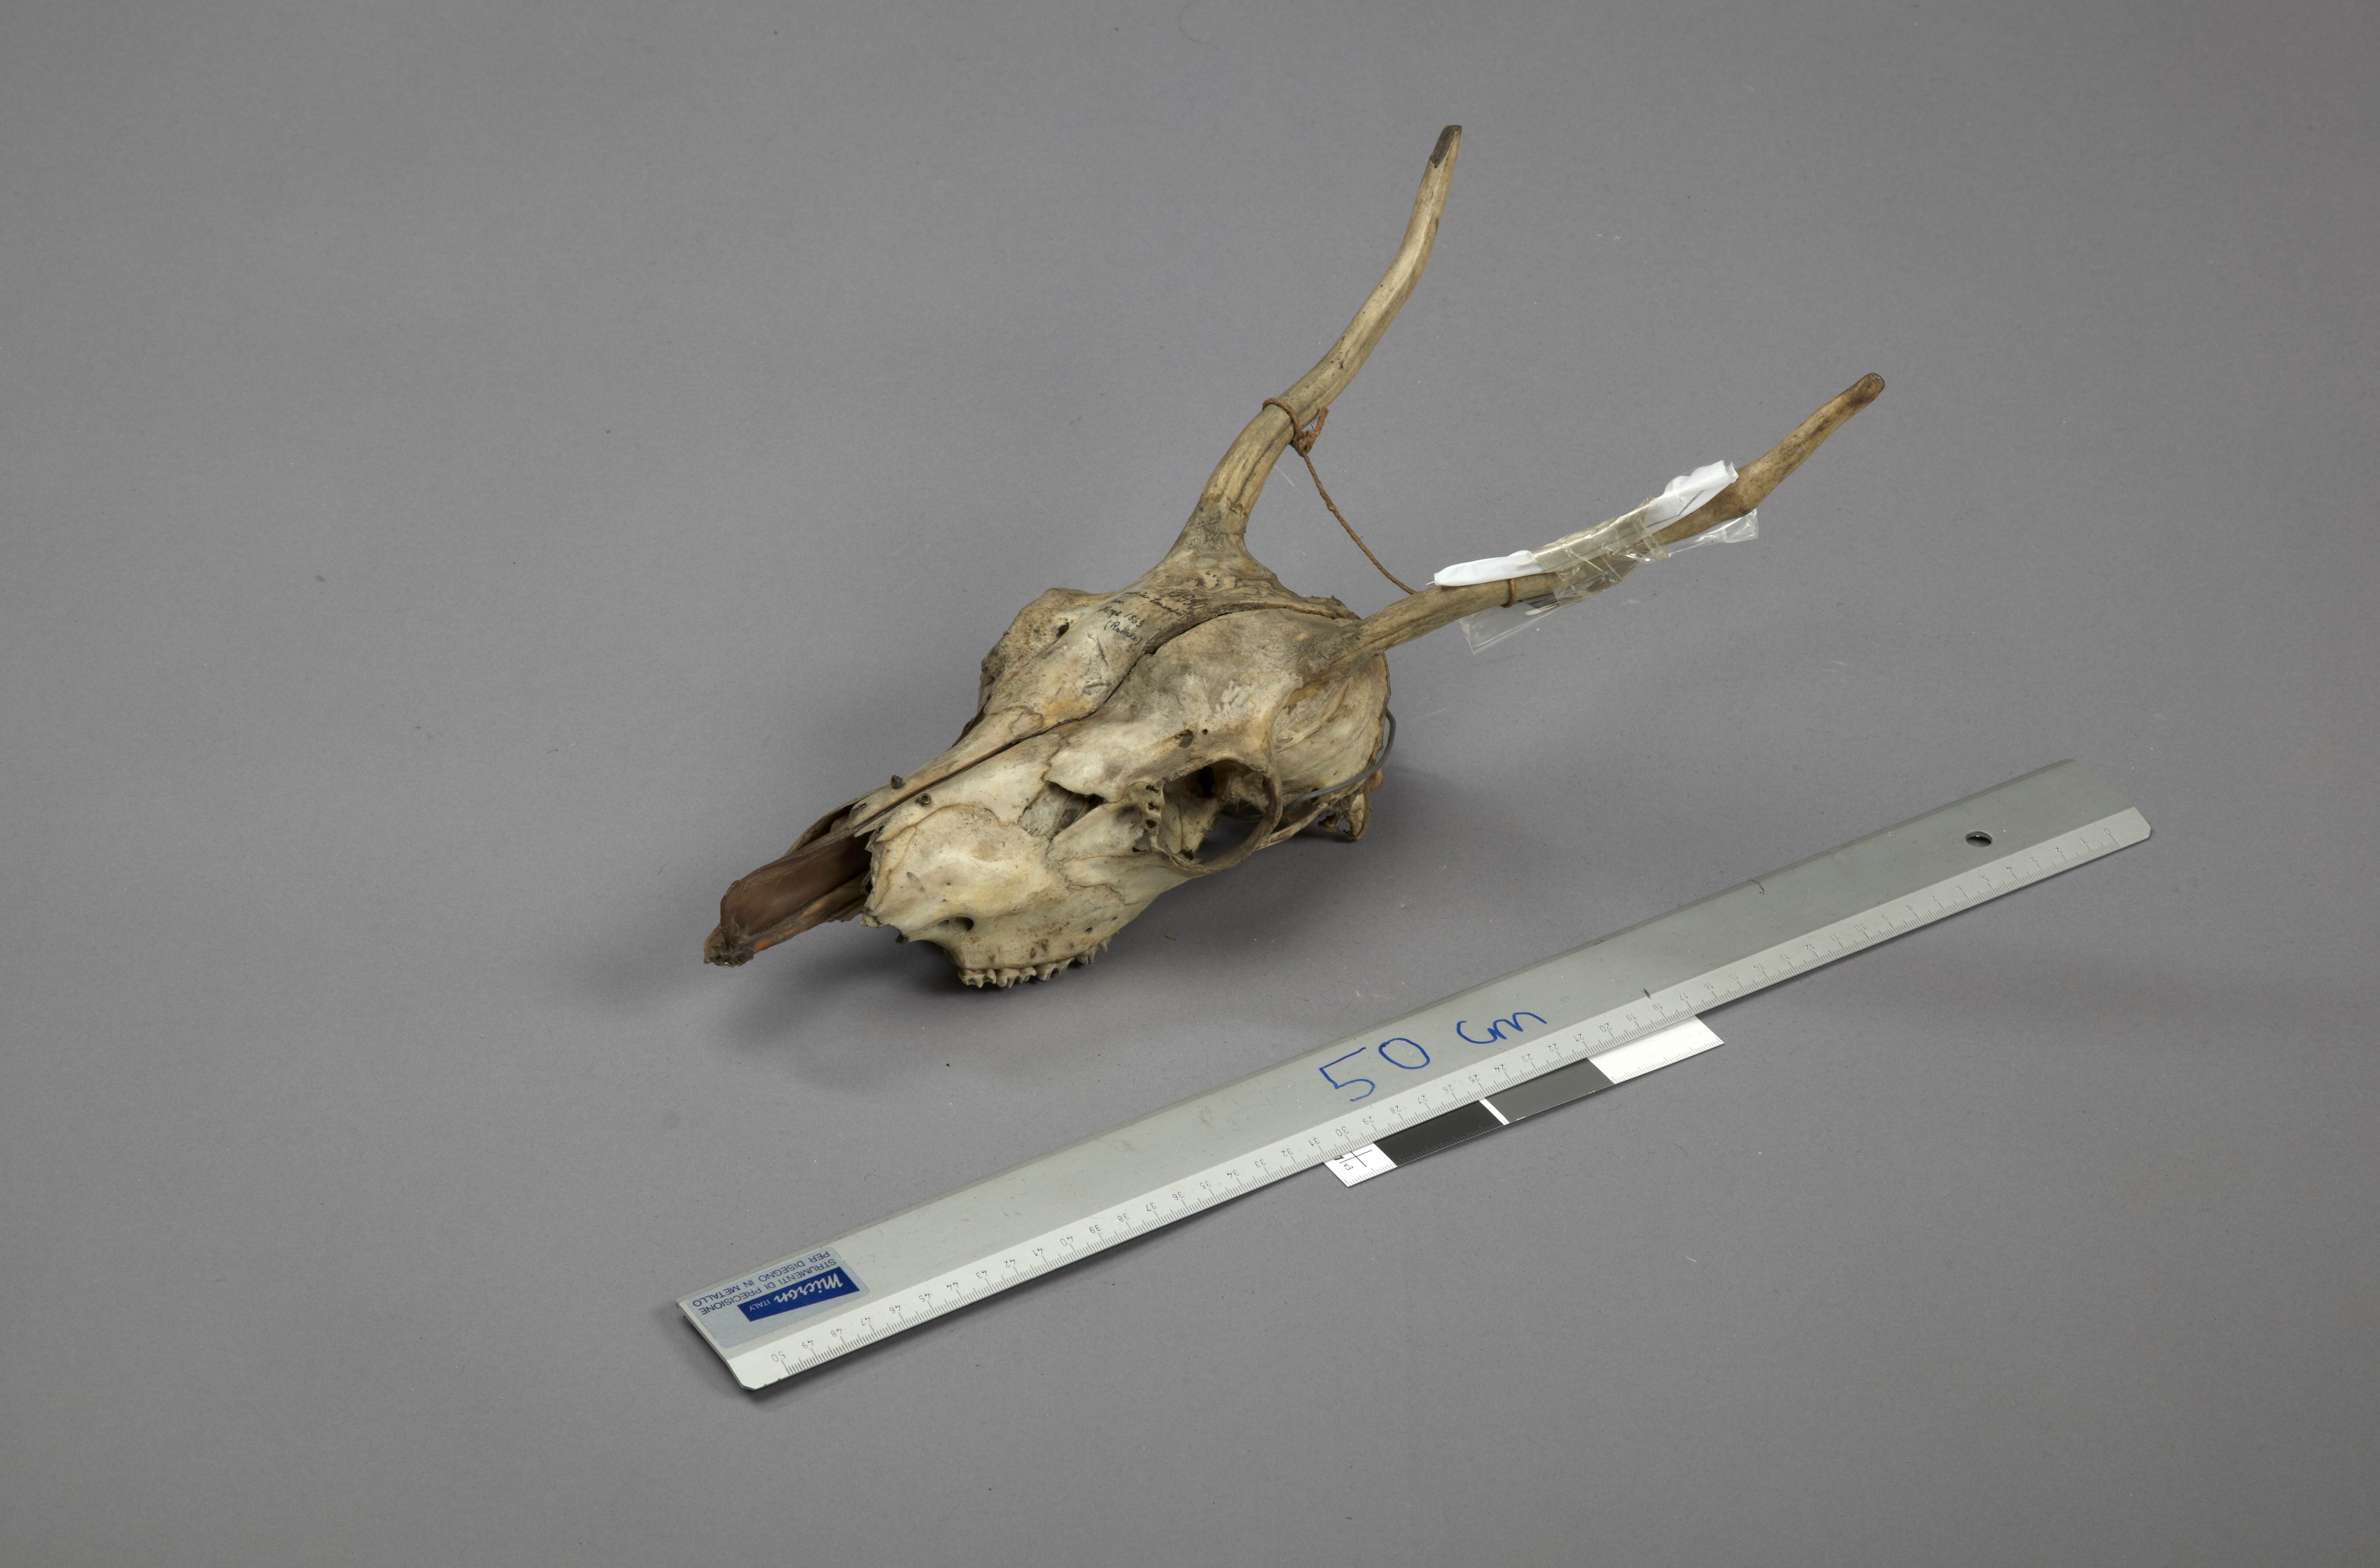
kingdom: Animalia
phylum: Chordata
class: Mammalia
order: Artiodactyla
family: Cervidae
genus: Rangifer
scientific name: Rangifer tarandus
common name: Reindeer
